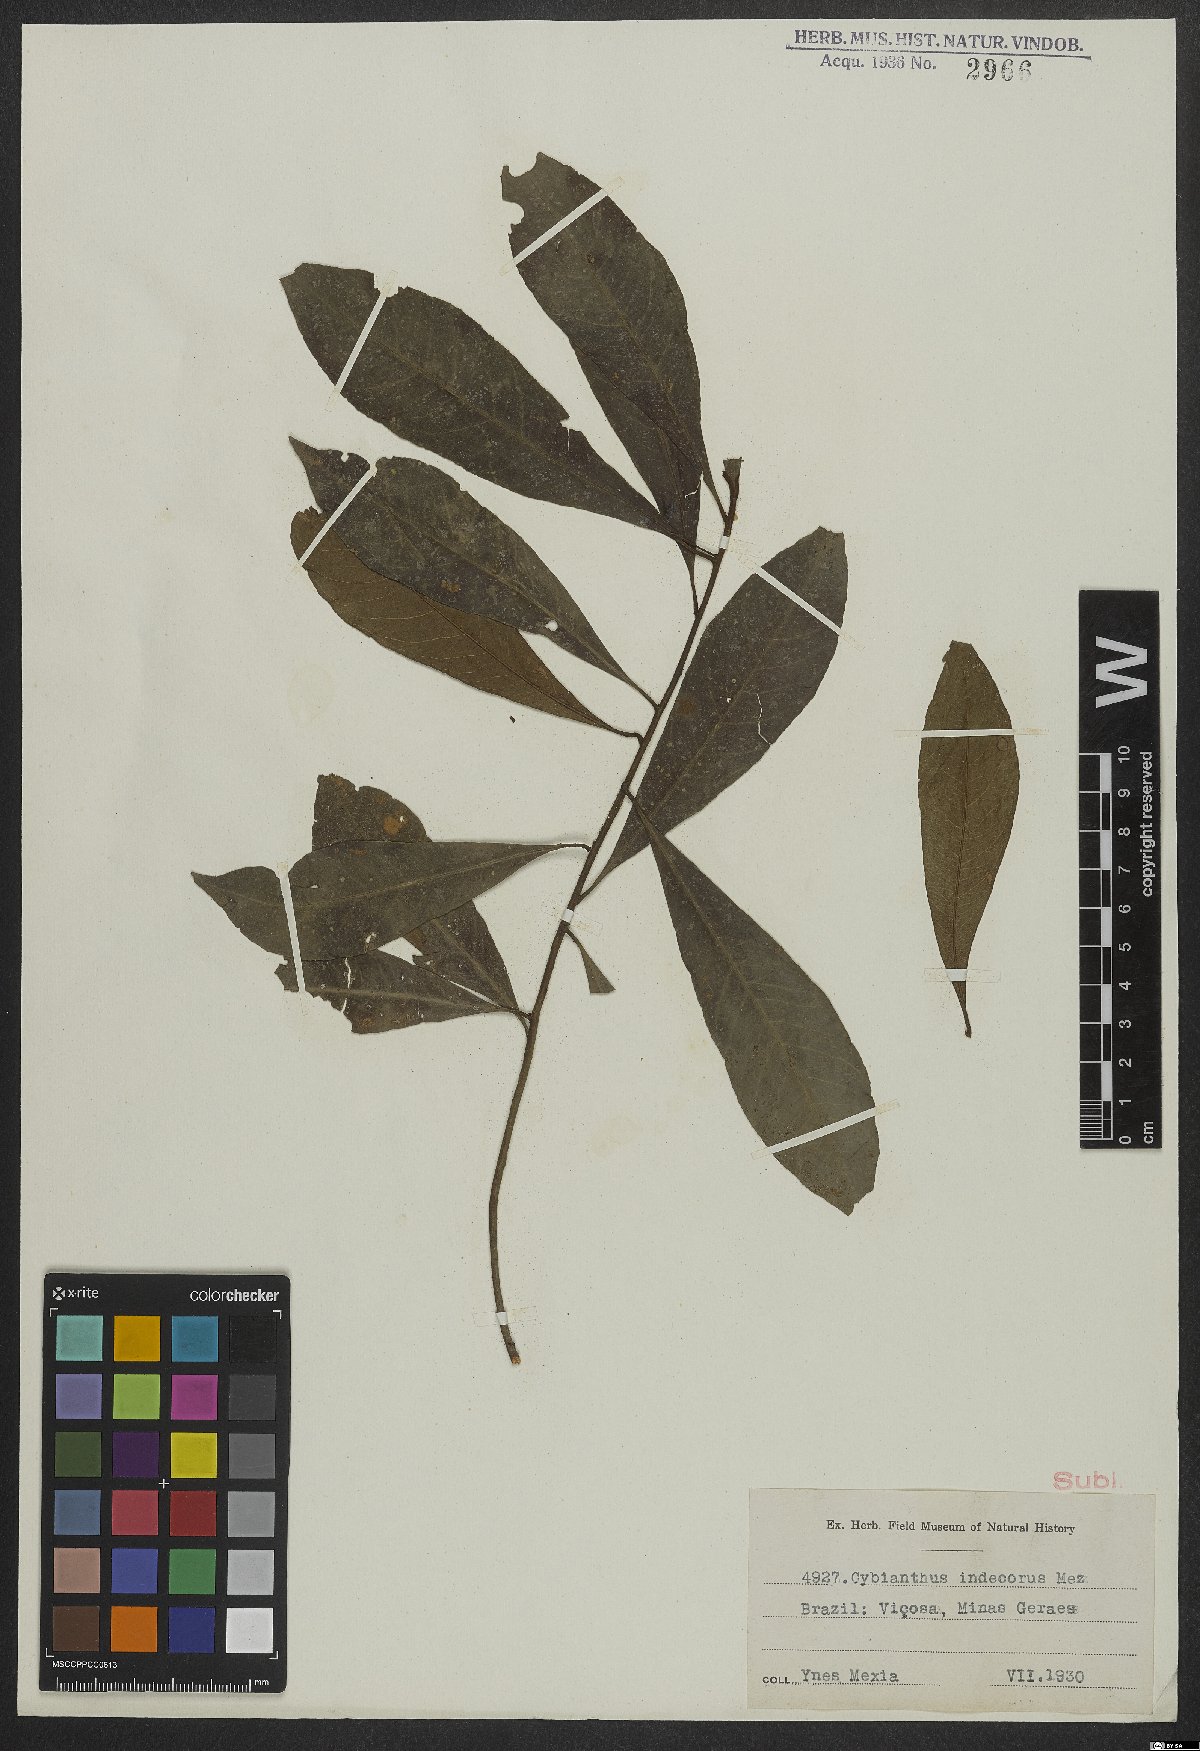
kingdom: Plantae
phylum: Tracheophyta
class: Magnoliopsida
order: Ericales
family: Primulaceae
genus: Cybianthus
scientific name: Cybianthus indecorus
